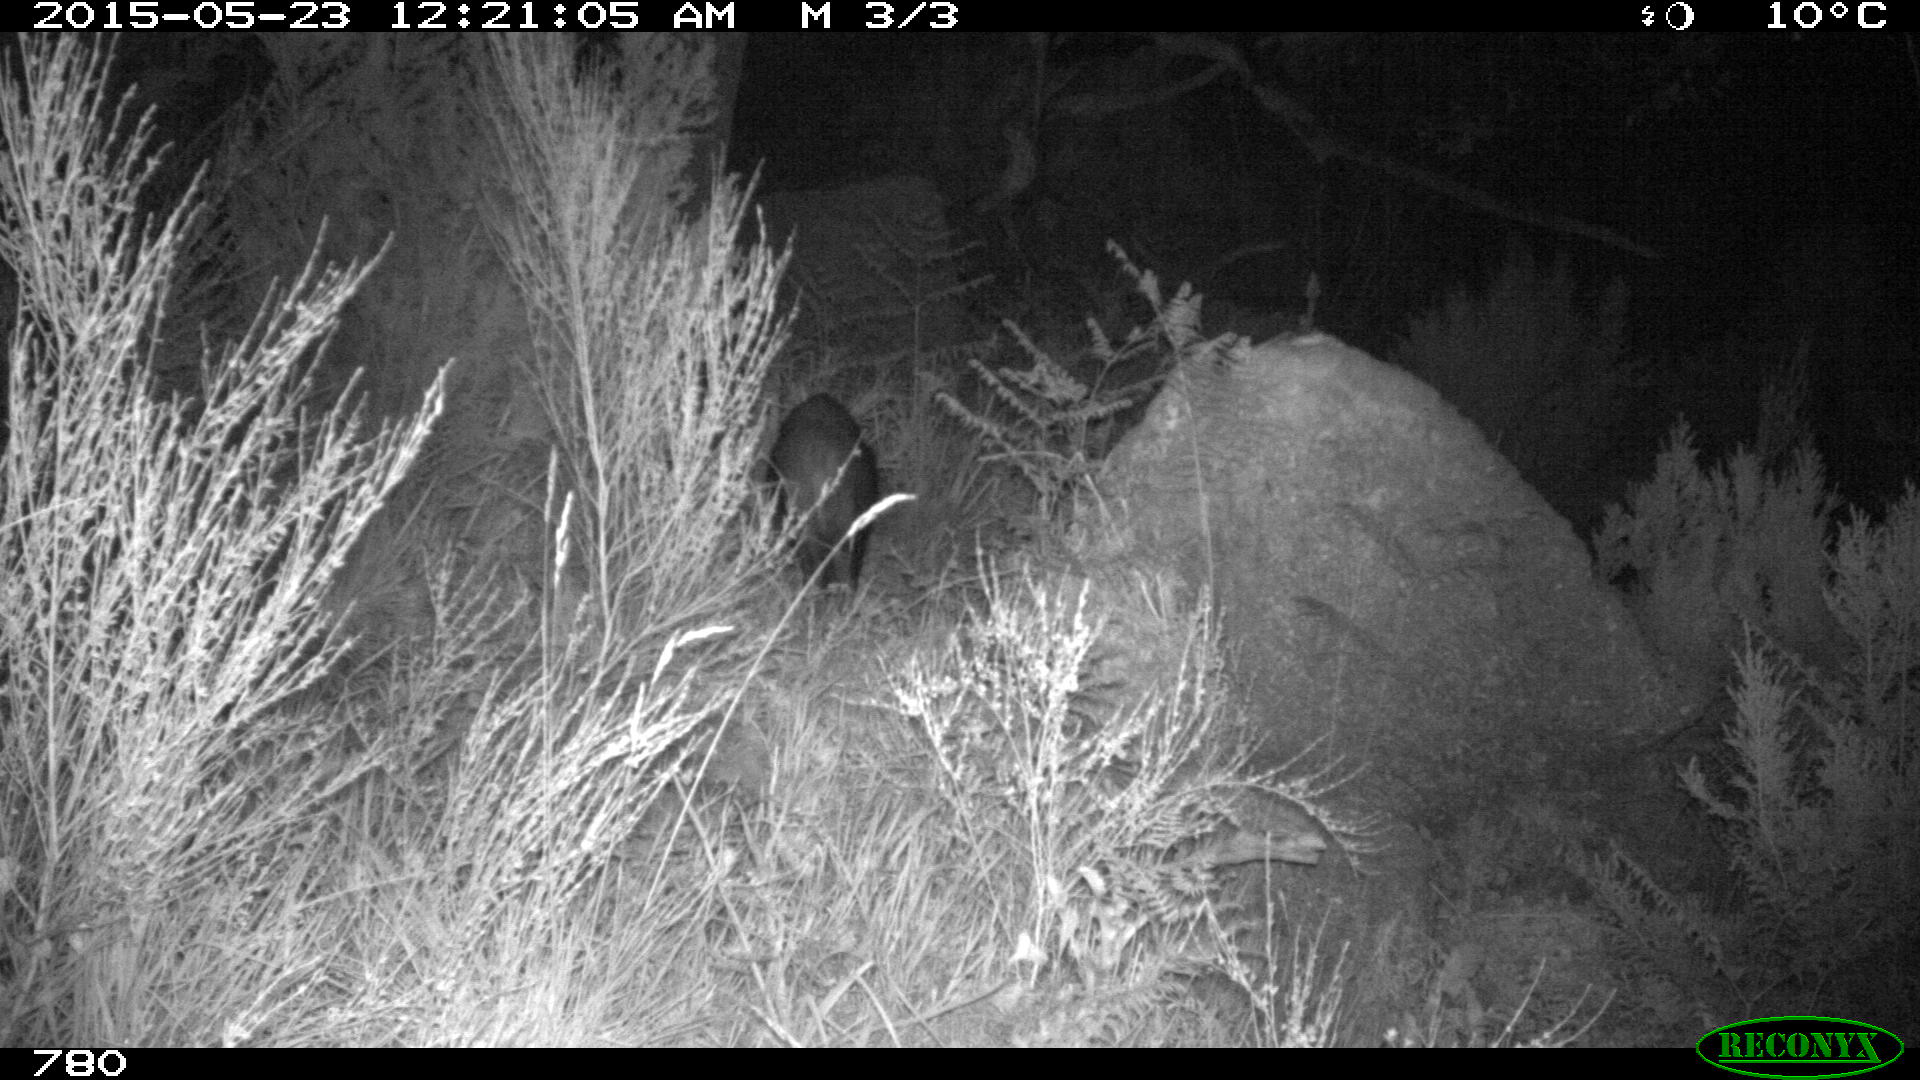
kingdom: Animalia
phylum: Chordata
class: Mammalia
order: Artiodactyla
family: Suidae
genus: Sus
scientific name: Sus scrofa
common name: Wild boar
